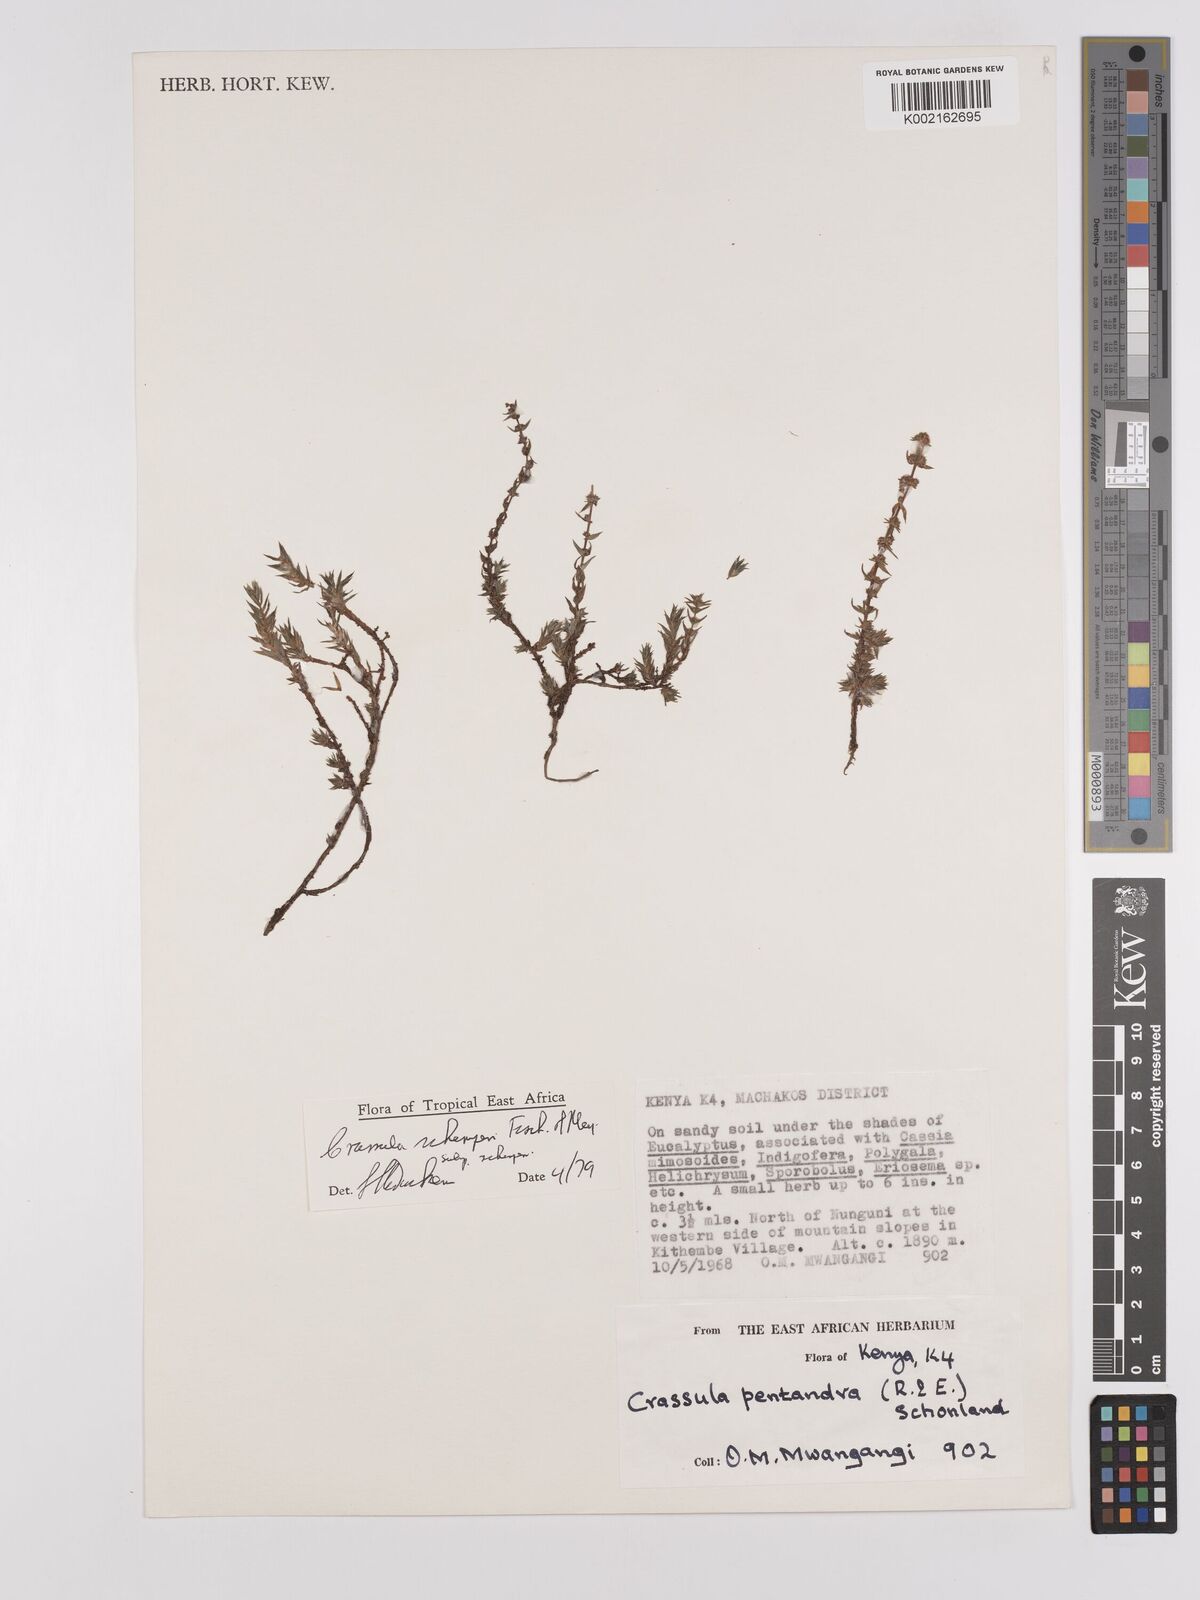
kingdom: Plantae
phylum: Tracheophyta
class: Magnoliopsida
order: Saxifragales
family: Crassulaceae
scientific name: Crassulaceae
